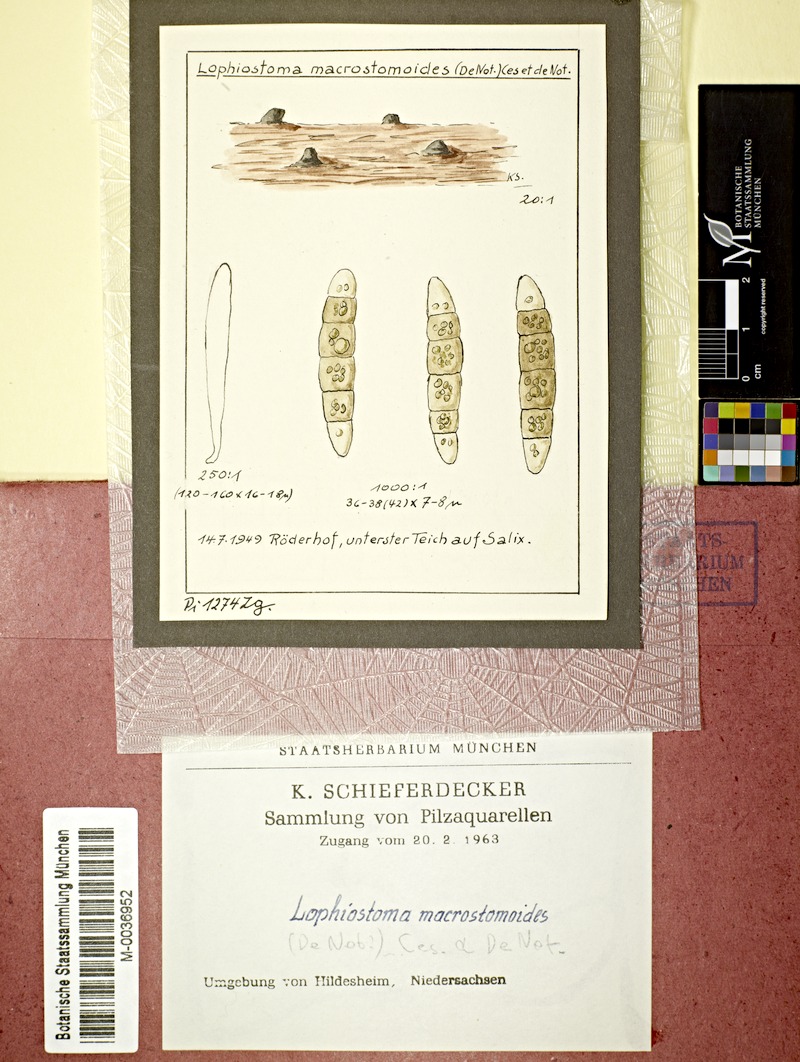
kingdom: Fungi
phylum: Ascomycota
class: Dothideomycetes
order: Pleosporales
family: Thyridariaceae
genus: Thyridaria
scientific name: Thyridaria macrostomoides
